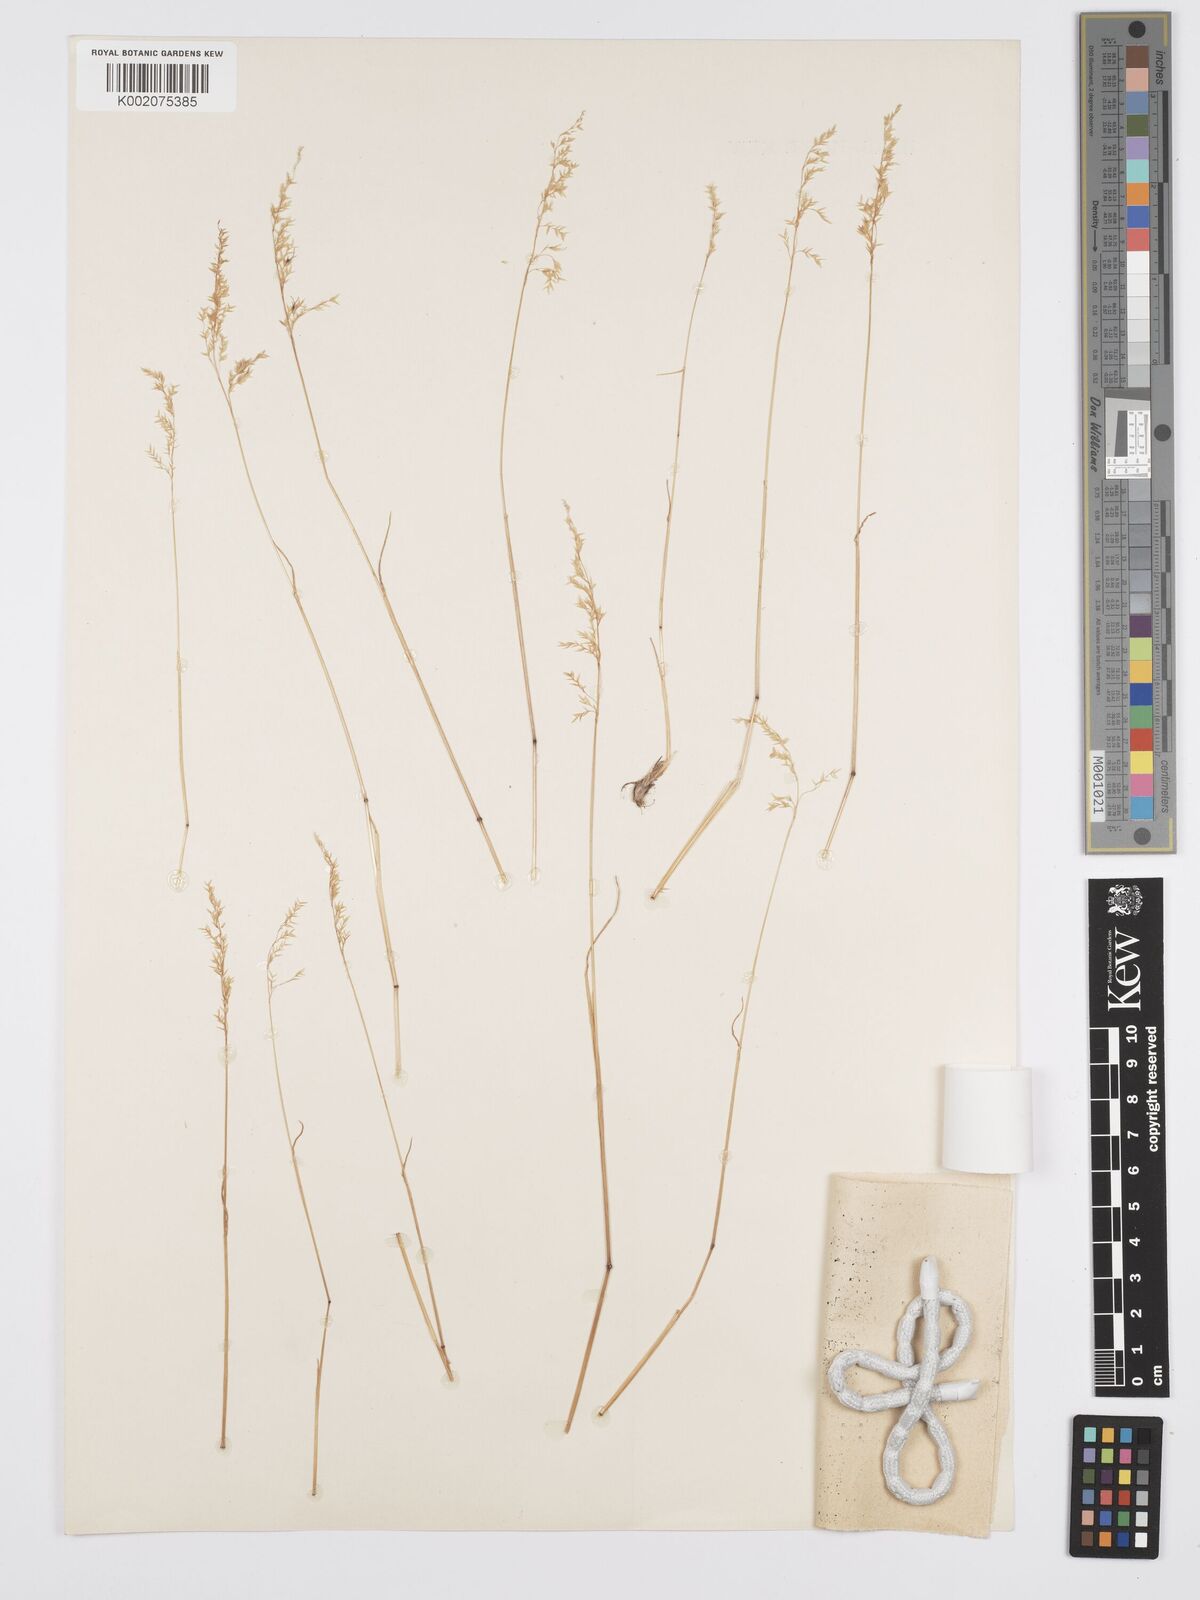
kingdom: Plantae
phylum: Tracheophyta
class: Liliopsida
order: Poales
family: Poaceae
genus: Poa
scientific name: Poa sinaica
